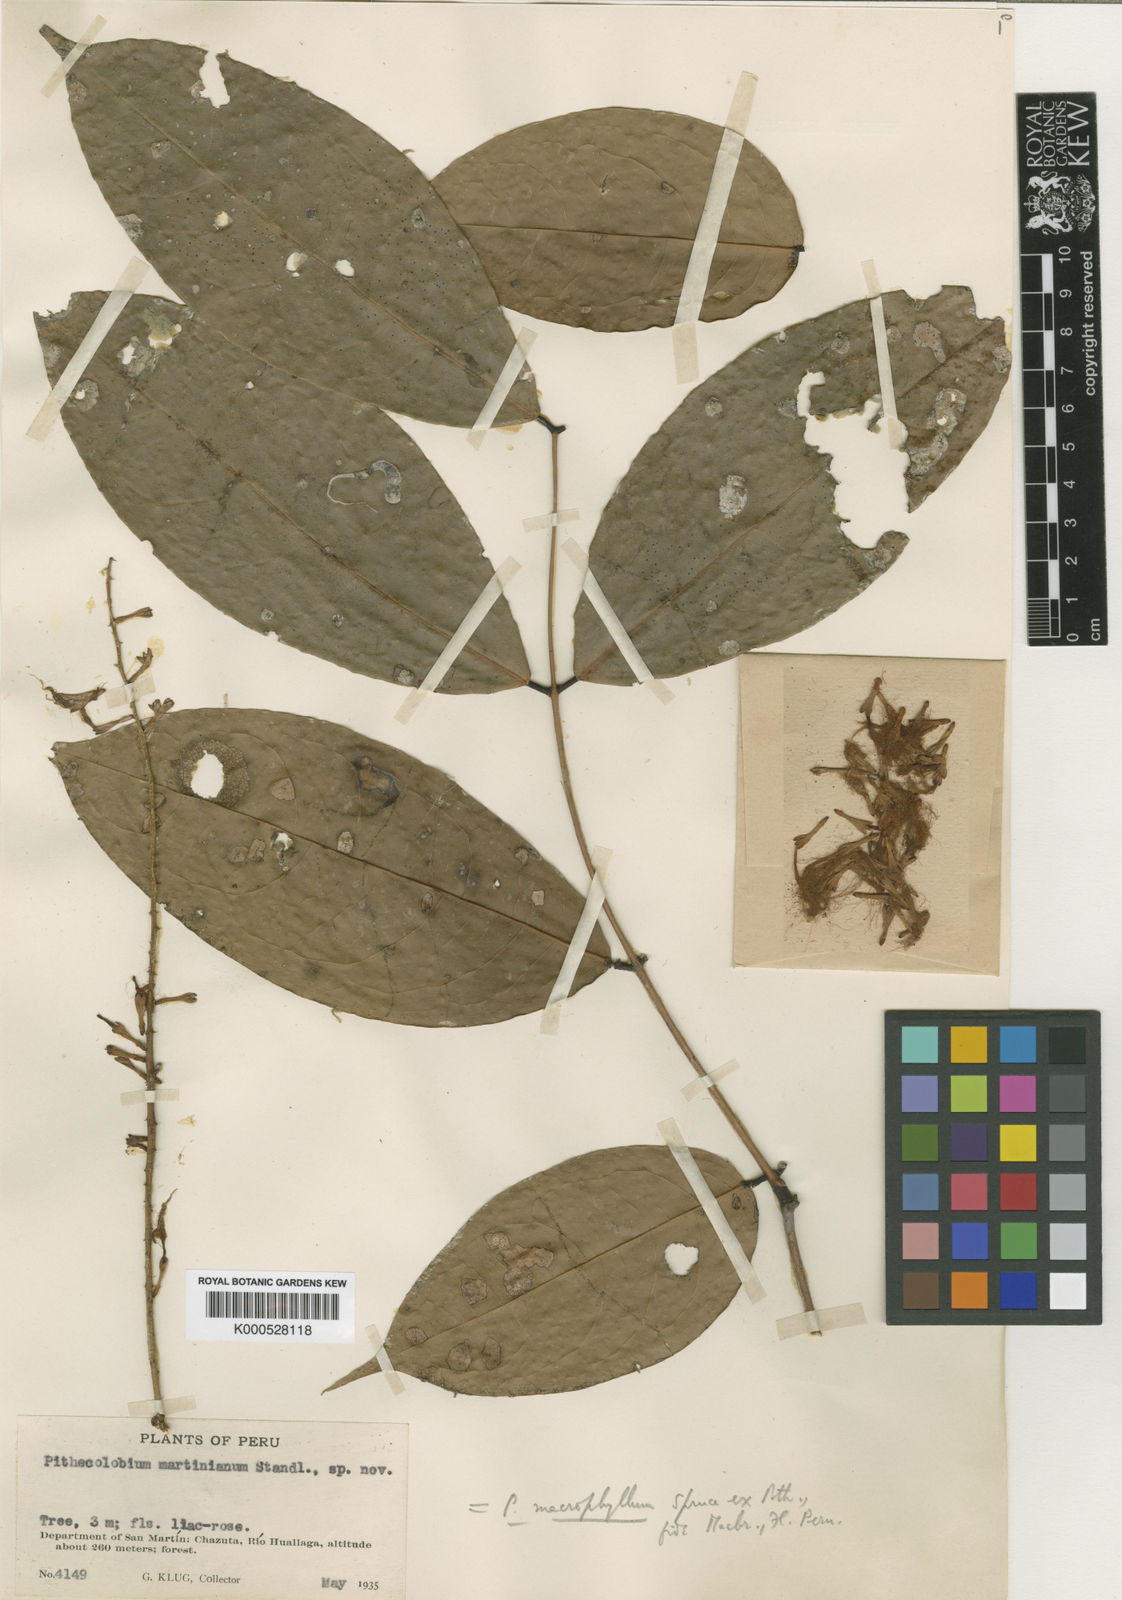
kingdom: Plantae
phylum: Tracheophyta
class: Magnoliopsida
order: Fabales
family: Fabaceae
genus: Zygia
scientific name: Zygia coccinea
